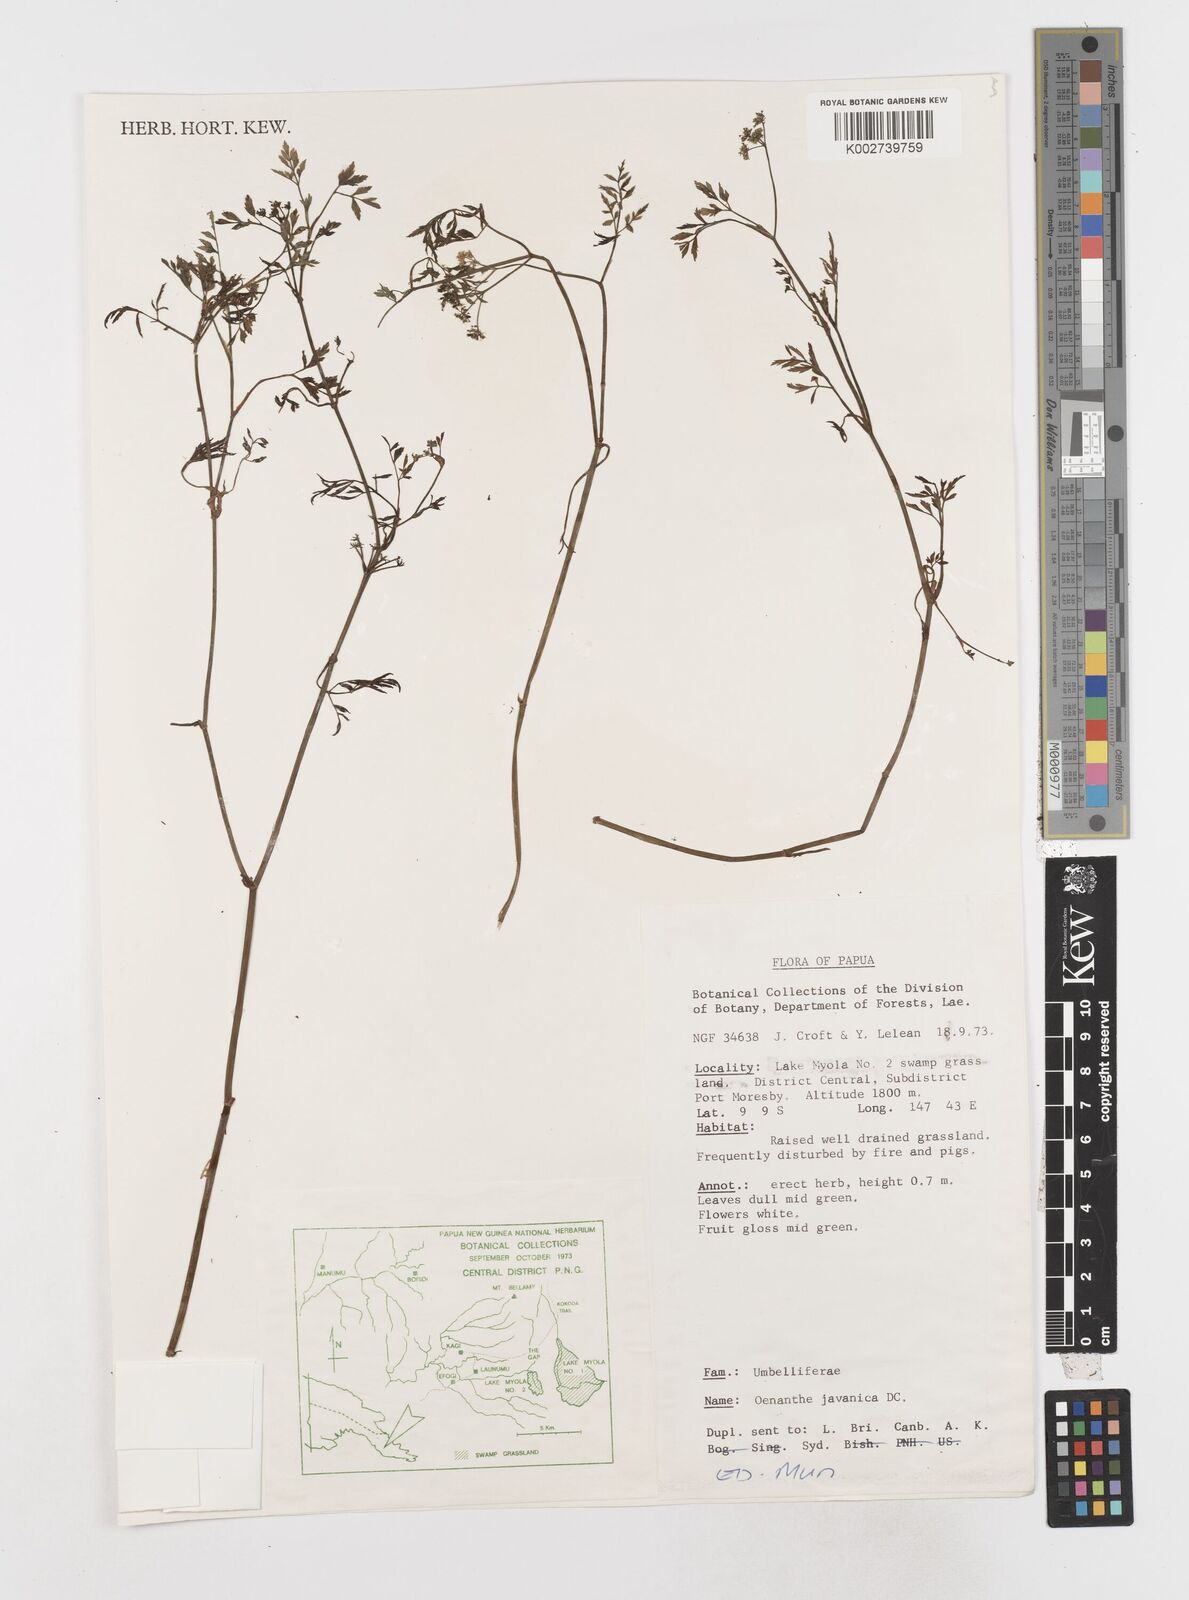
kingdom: Plantae
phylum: Tracheophyta
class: Magnoliopsida
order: Apiales
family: Apiaceae
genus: Oenanthe
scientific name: Oenanthe javanica
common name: Java water-dropwort
